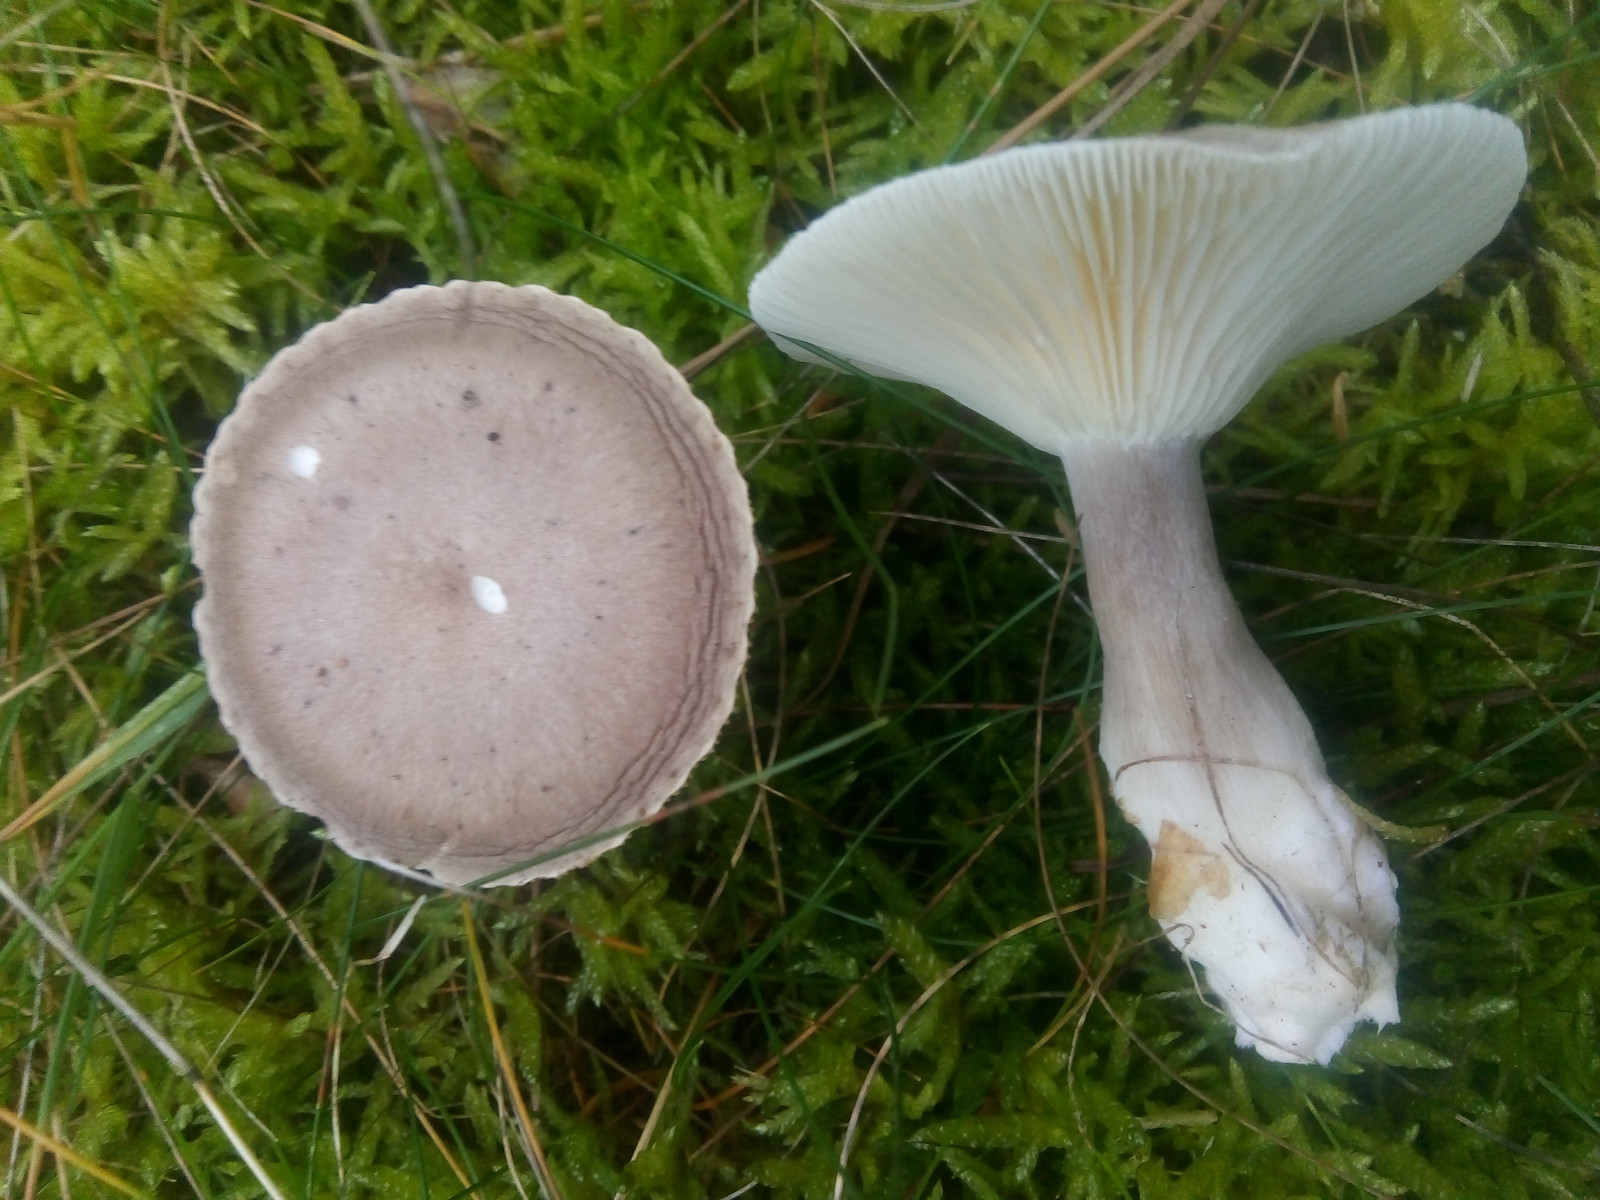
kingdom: Fungi
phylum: Basidiomycota
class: Agaricomycetes
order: Agaricales
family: Hygrophoraceae
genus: Ampulloclitocybe
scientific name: Ampulloclitocybe clavipes
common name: køllefod
